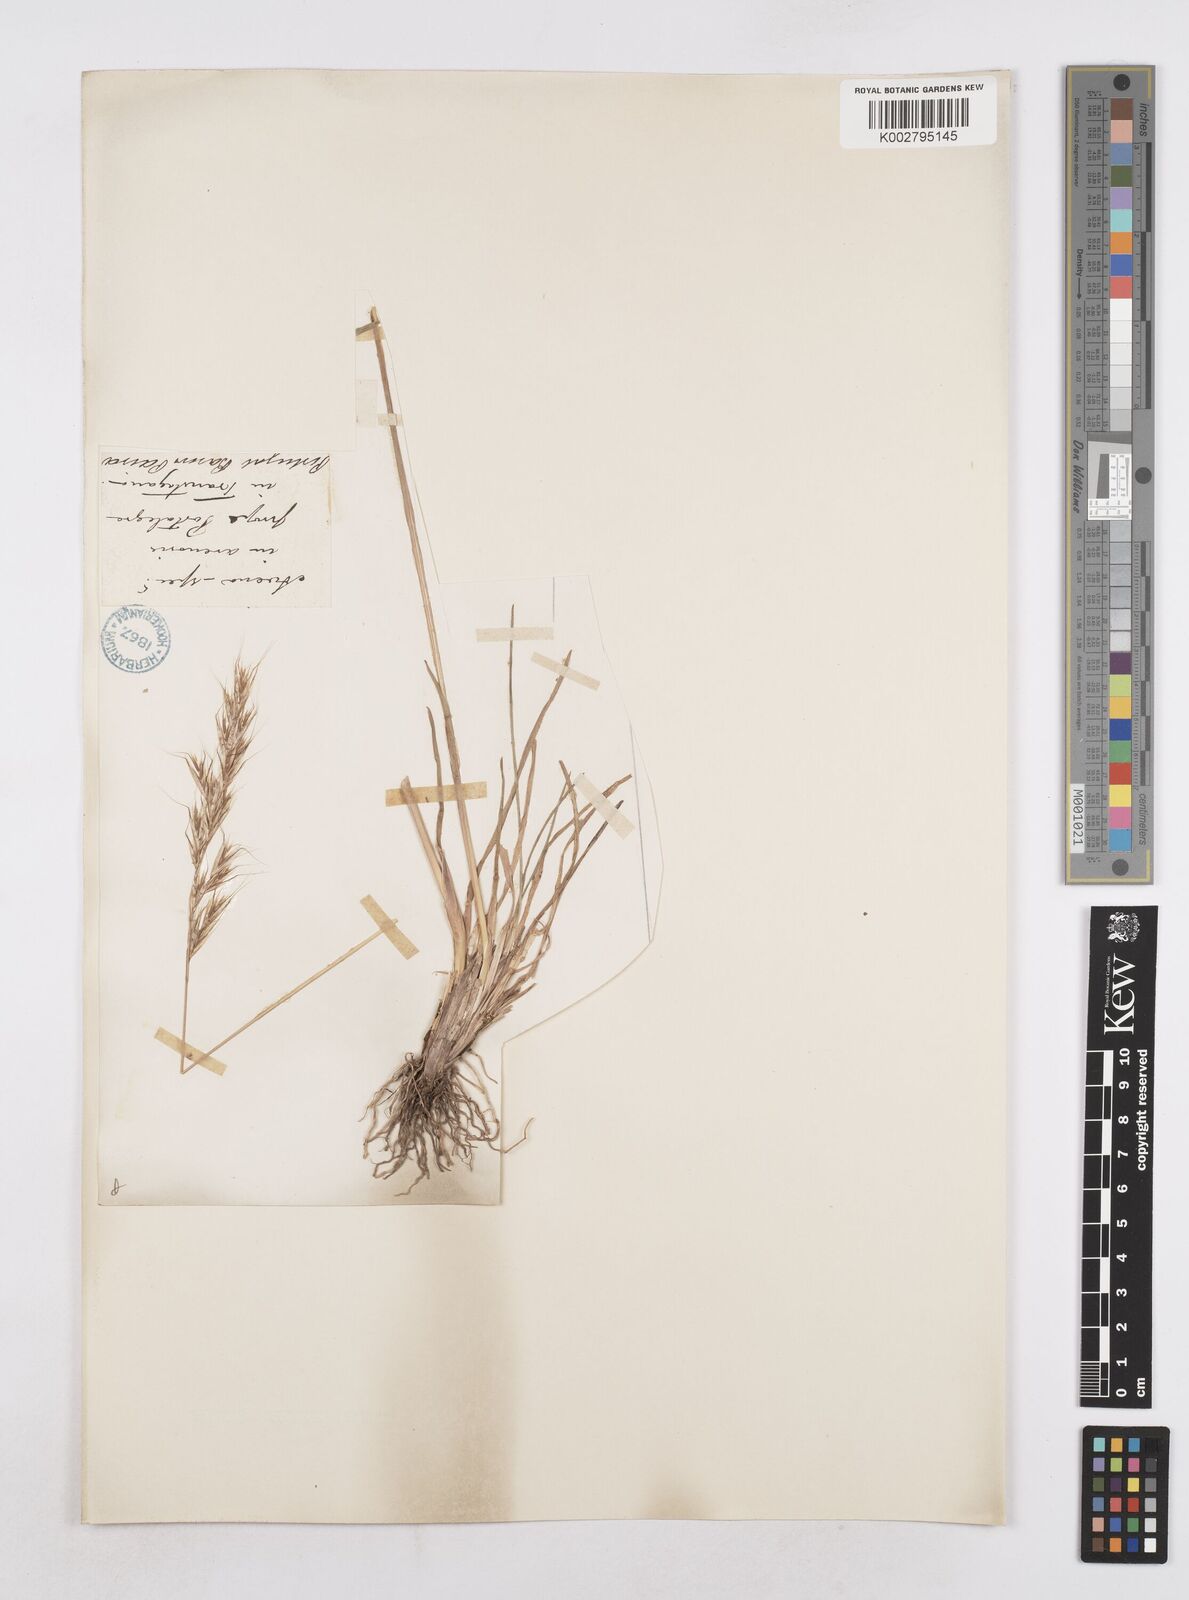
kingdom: Plantae
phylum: Tracheophyta
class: Liliopsida
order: Poales
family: Poaceae
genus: Helictochloa
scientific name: Helictochloa pratensis
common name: Meadow oat grass
